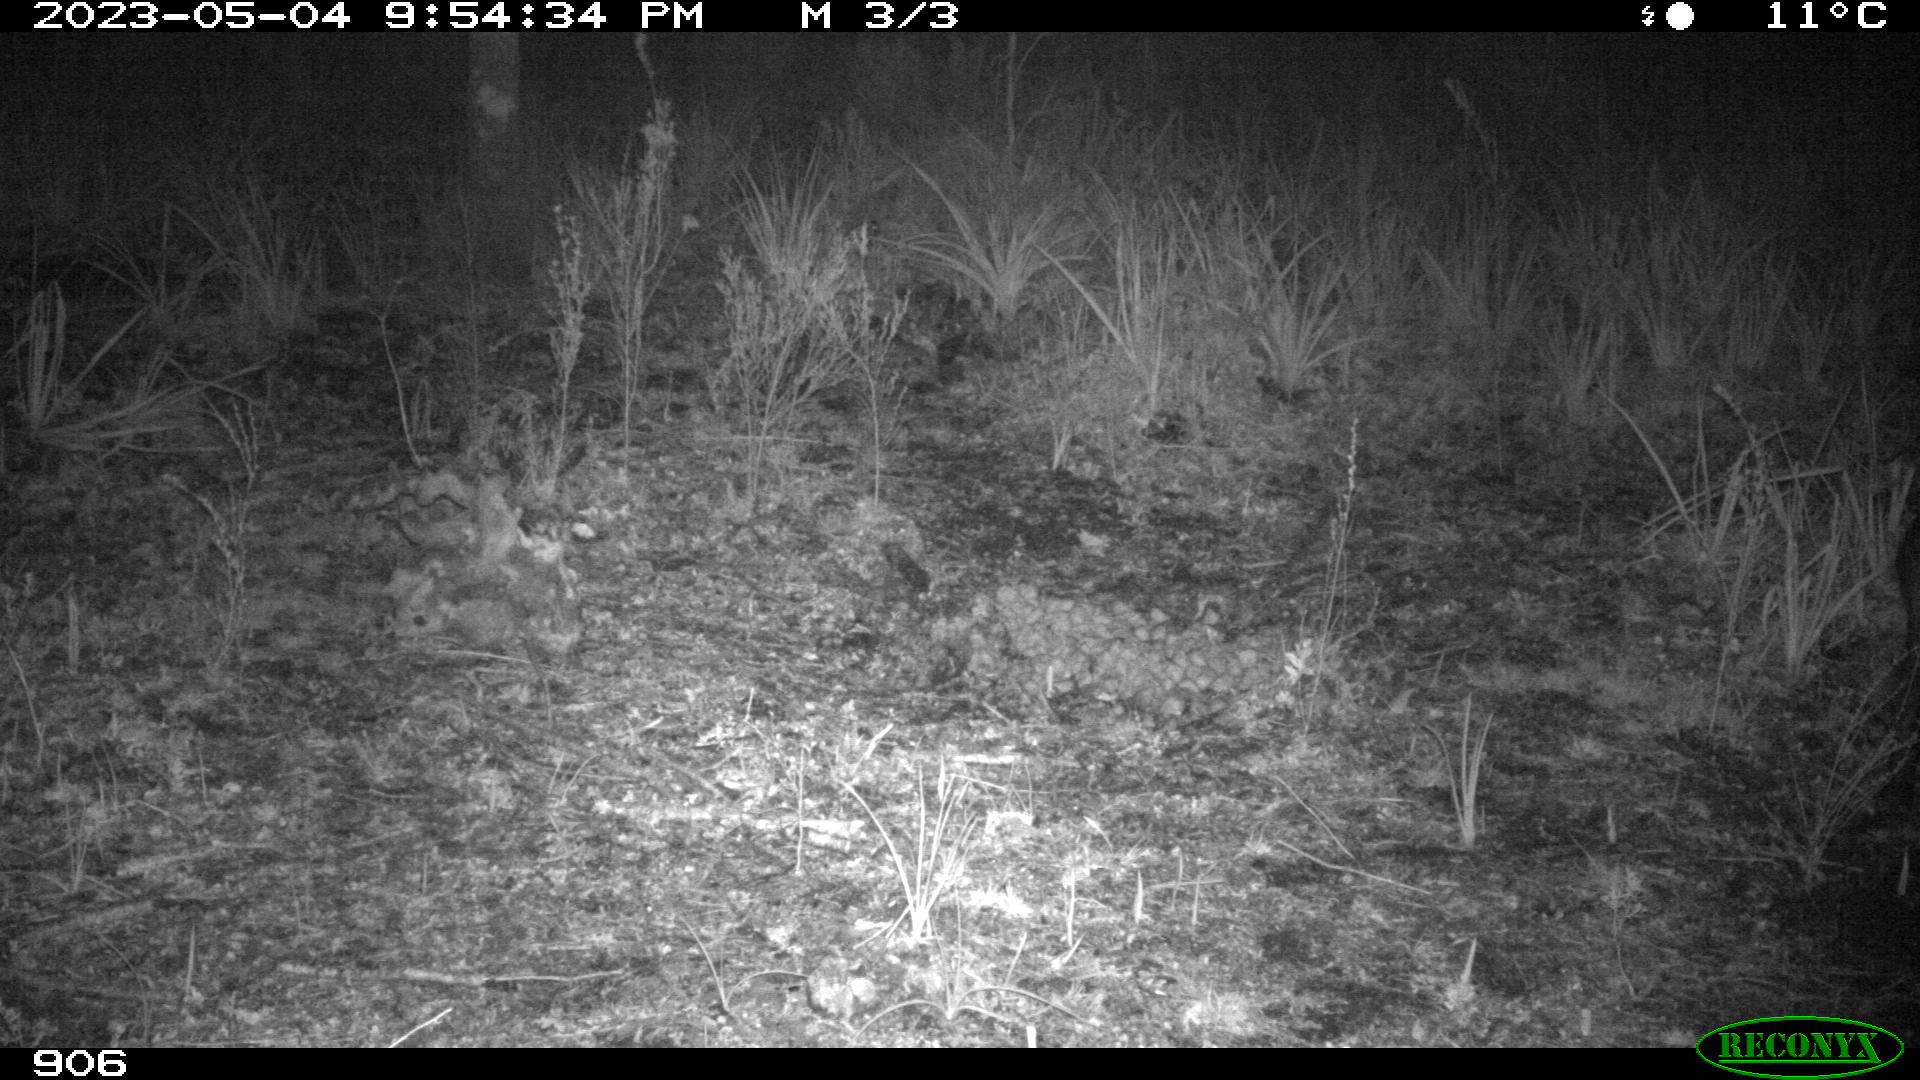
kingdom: Animalia
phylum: Chordata
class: Mammalia
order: Artiodactyla
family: Suidae
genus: Sus
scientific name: Sus scrofa
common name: Wild boar
